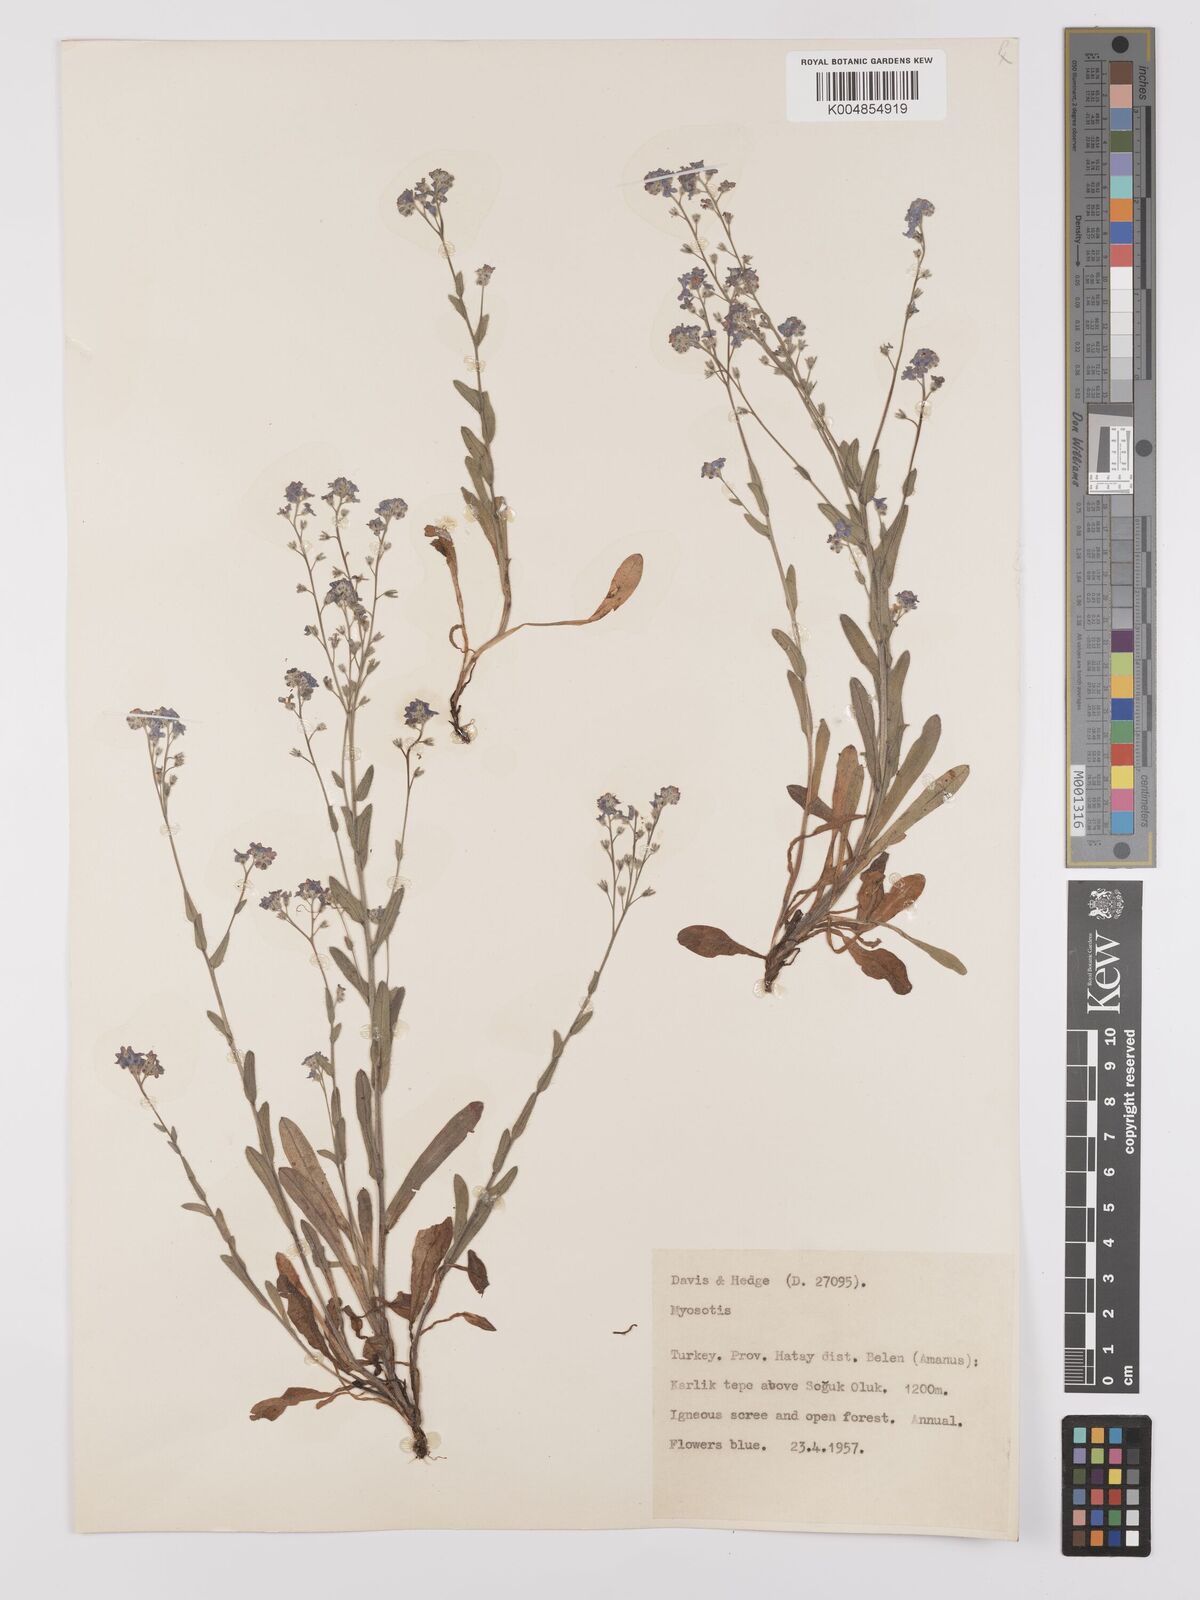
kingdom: Plantae
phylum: Tracheophyta
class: Magnoliopsida
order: Boraginales
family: Boraginaceae
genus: Myosotis
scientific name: Myosotis
